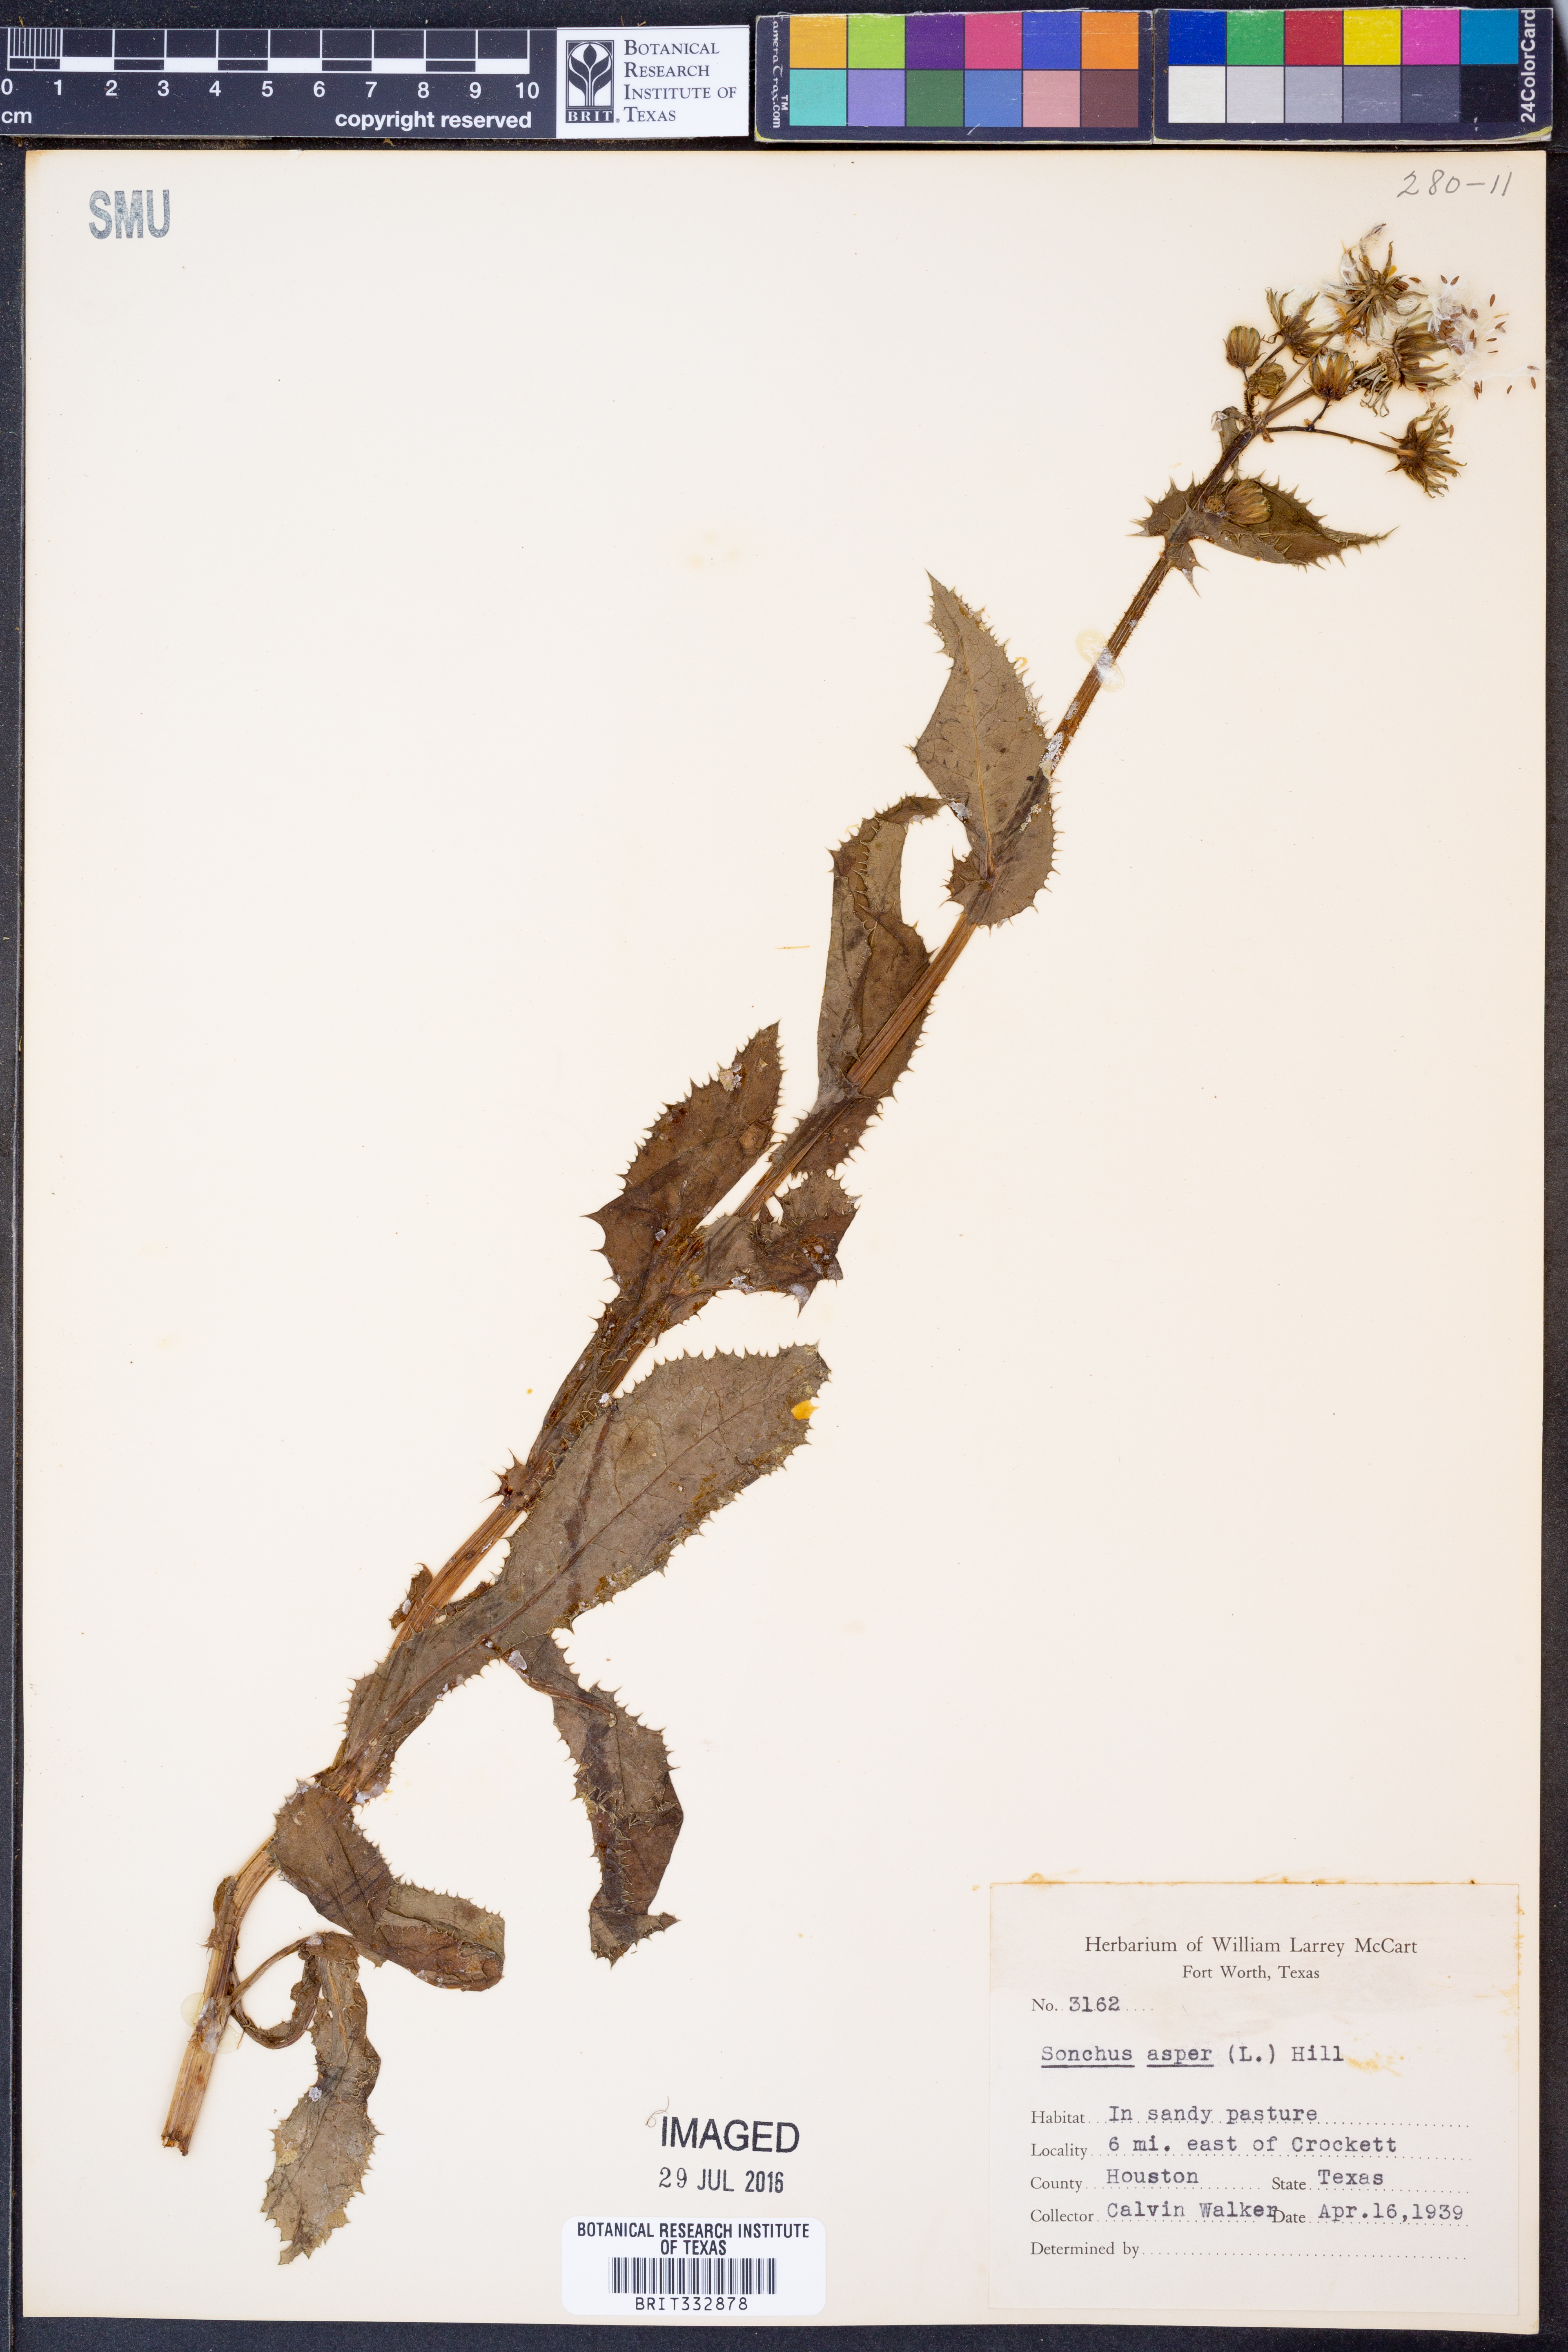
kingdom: Plantae
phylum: Tracheophyta
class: Magnoliopsida
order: Asterales
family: Asteraceae
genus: Sonchus
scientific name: Sonchus asper
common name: Prickly sow-thistle
